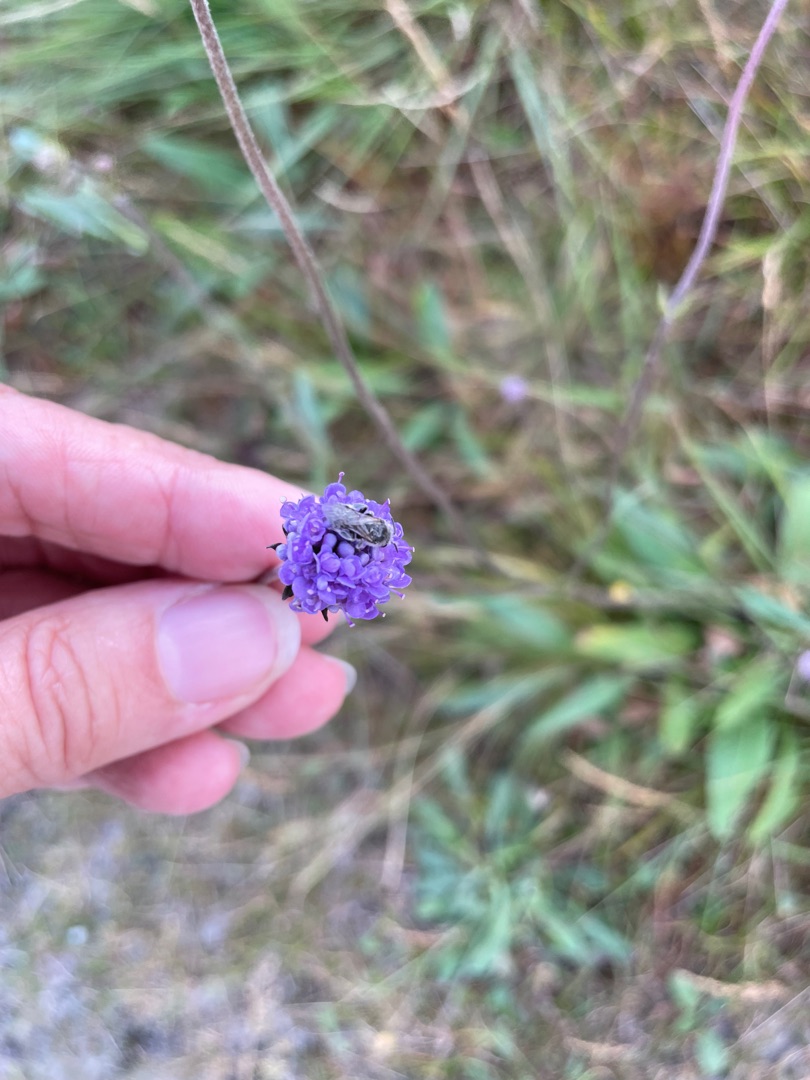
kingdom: Plantae
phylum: Tracheophyta
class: Magnoliopsida
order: Dipsacales
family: Caprifoliaceae
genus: Succisa
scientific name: Succisa pratensis
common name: Djævelsbid
